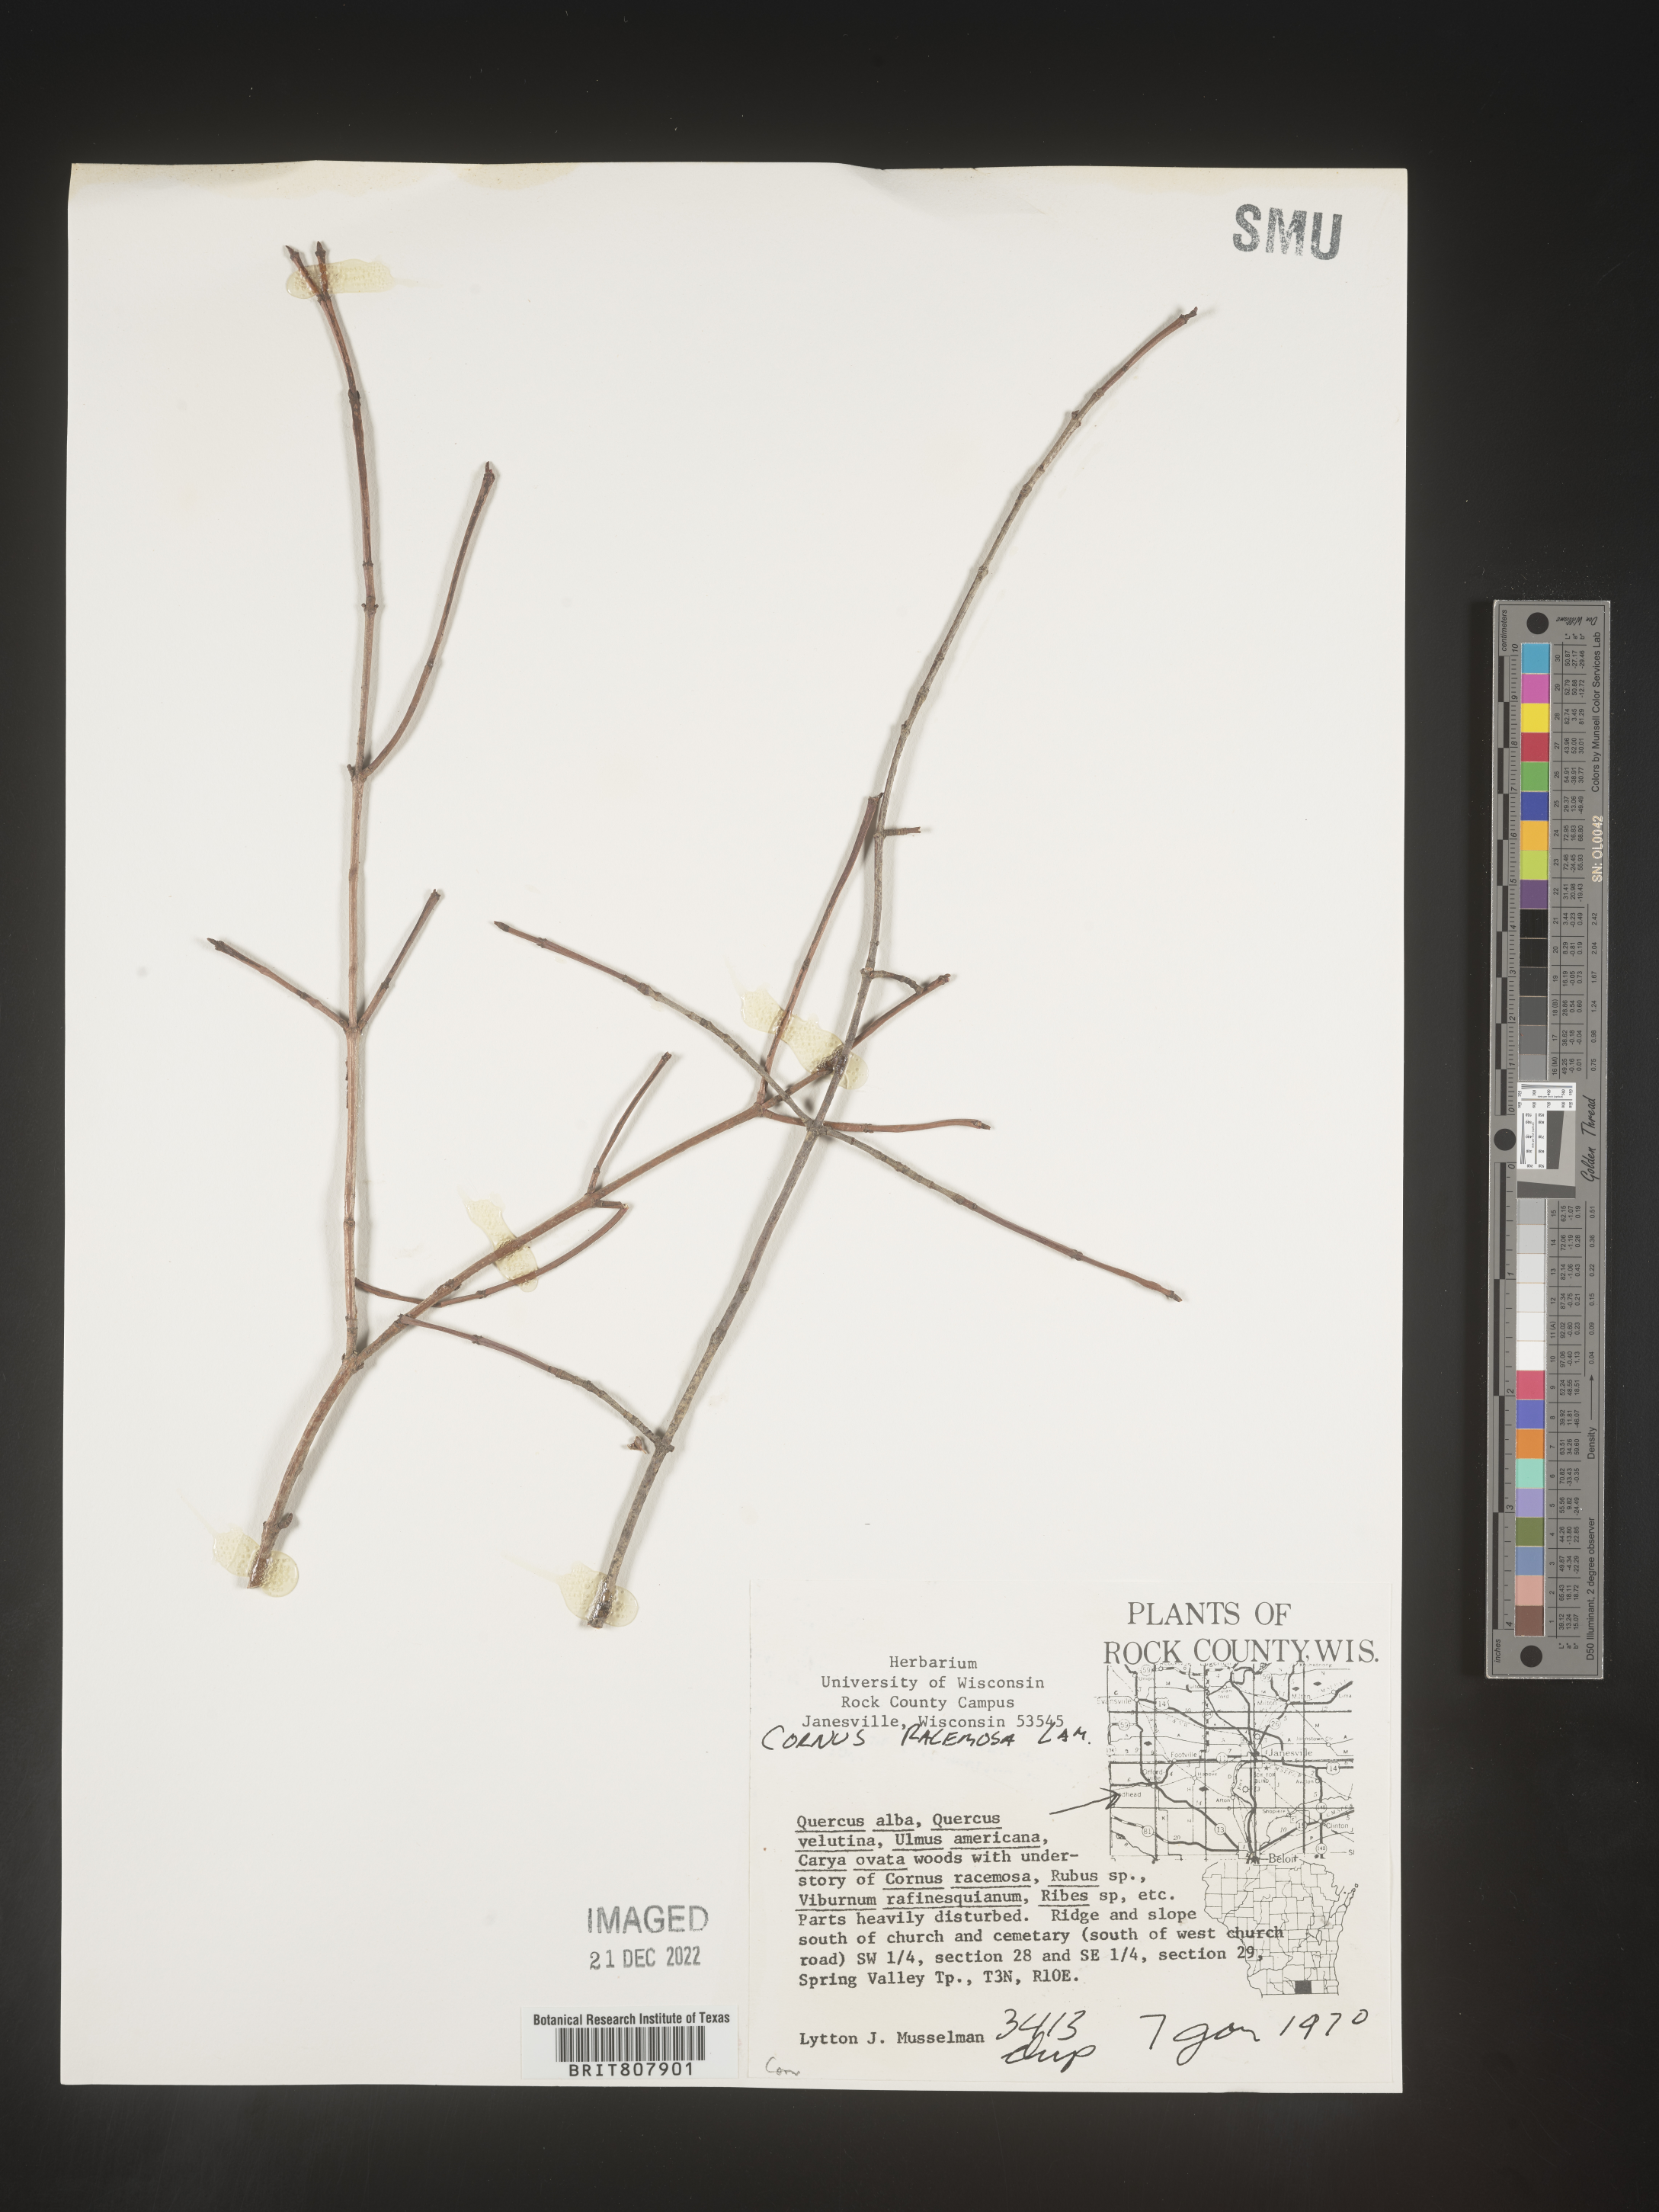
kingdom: Plantae
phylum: Tracheophyta
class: Magnoliopsida
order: Cornales
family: Cornaceae
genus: Cornus
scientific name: Cornus racemosa
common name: Panicled dogwood
